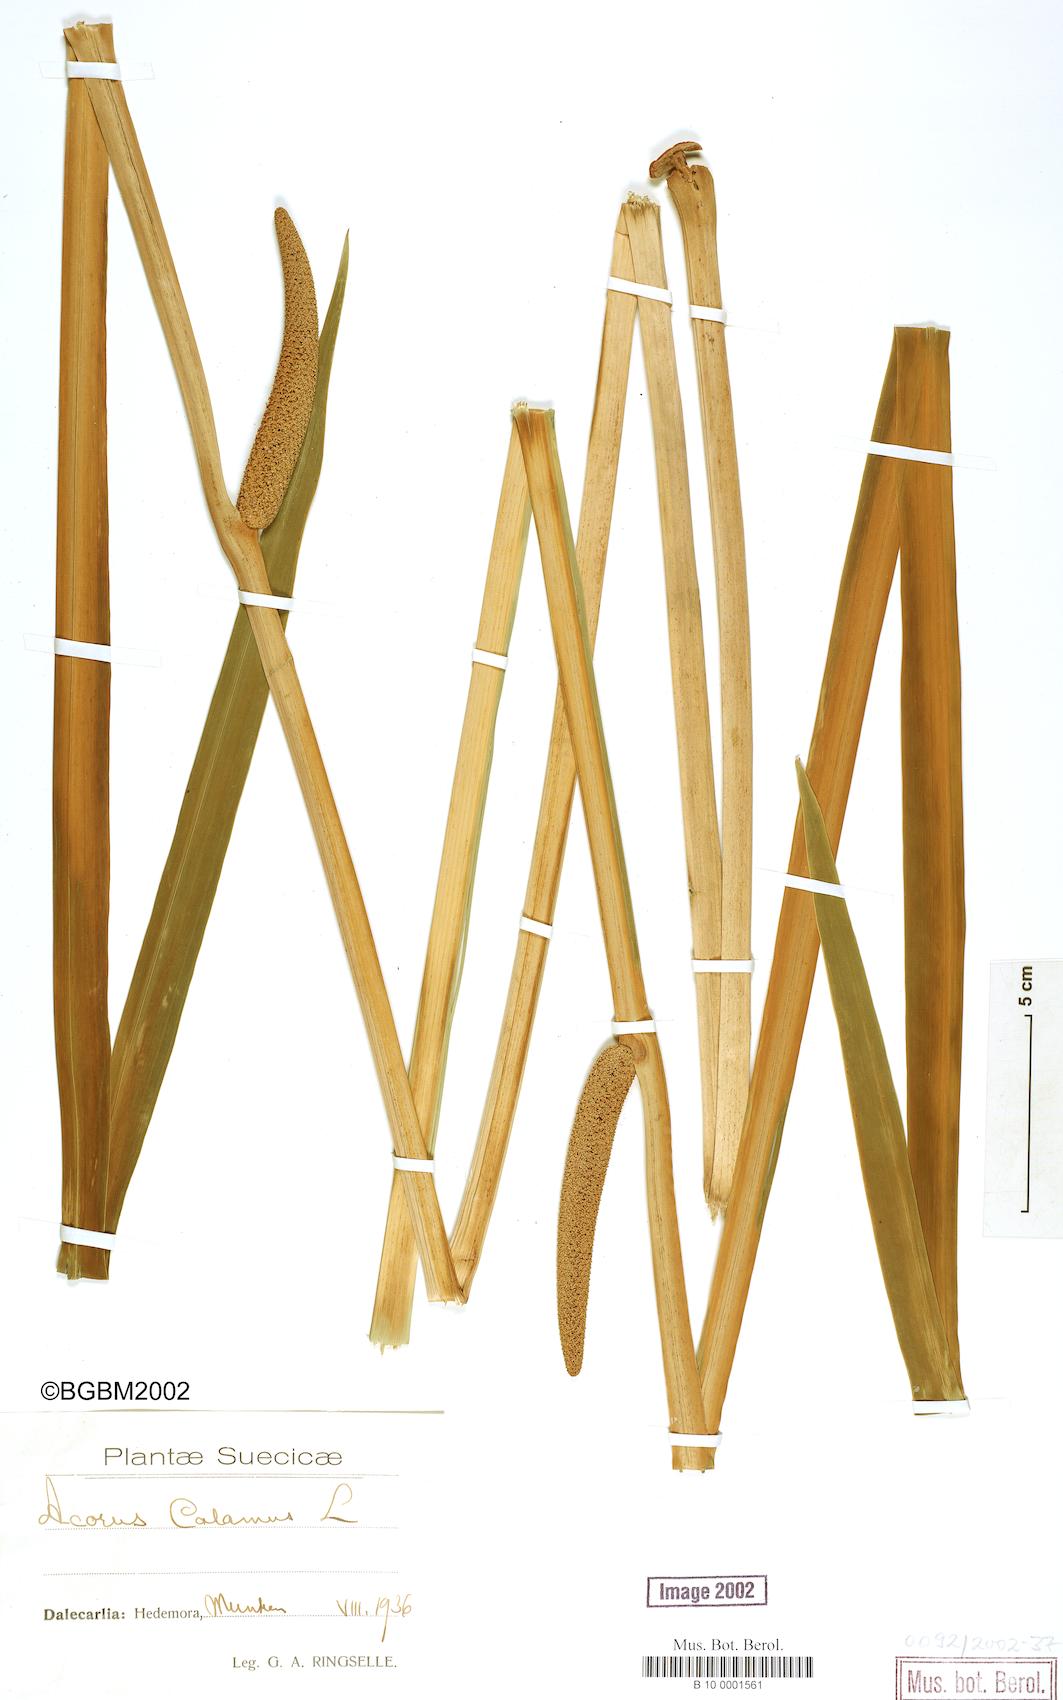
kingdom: Plantae
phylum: Tracheophyta
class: Liliopsida
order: Acorales
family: Acoraceae
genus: Acorus
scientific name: Acorus calamus
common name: Sweet-flag
